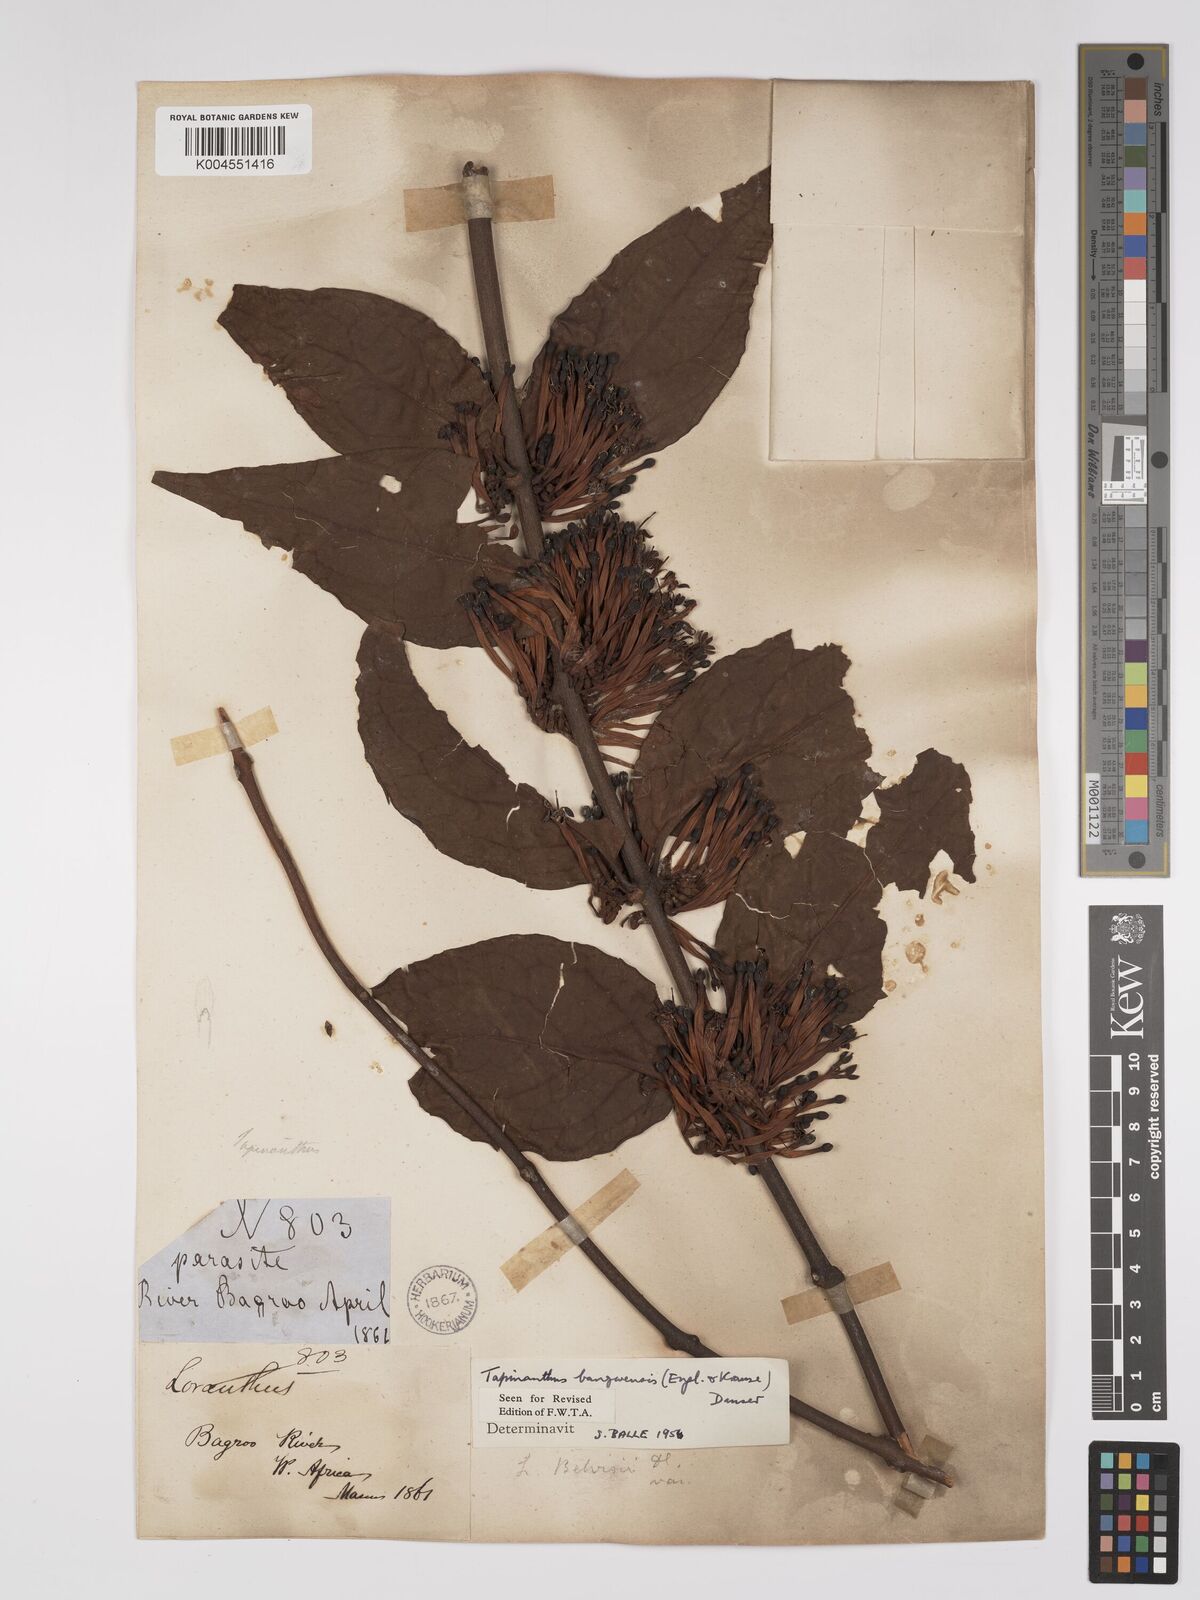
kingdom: Plantae
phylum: Tracheophyta
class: Magnoliopsida
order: Santalales
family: Loranthaceae
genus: Tapinanthus
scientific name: Tapinanthus bangwensis
